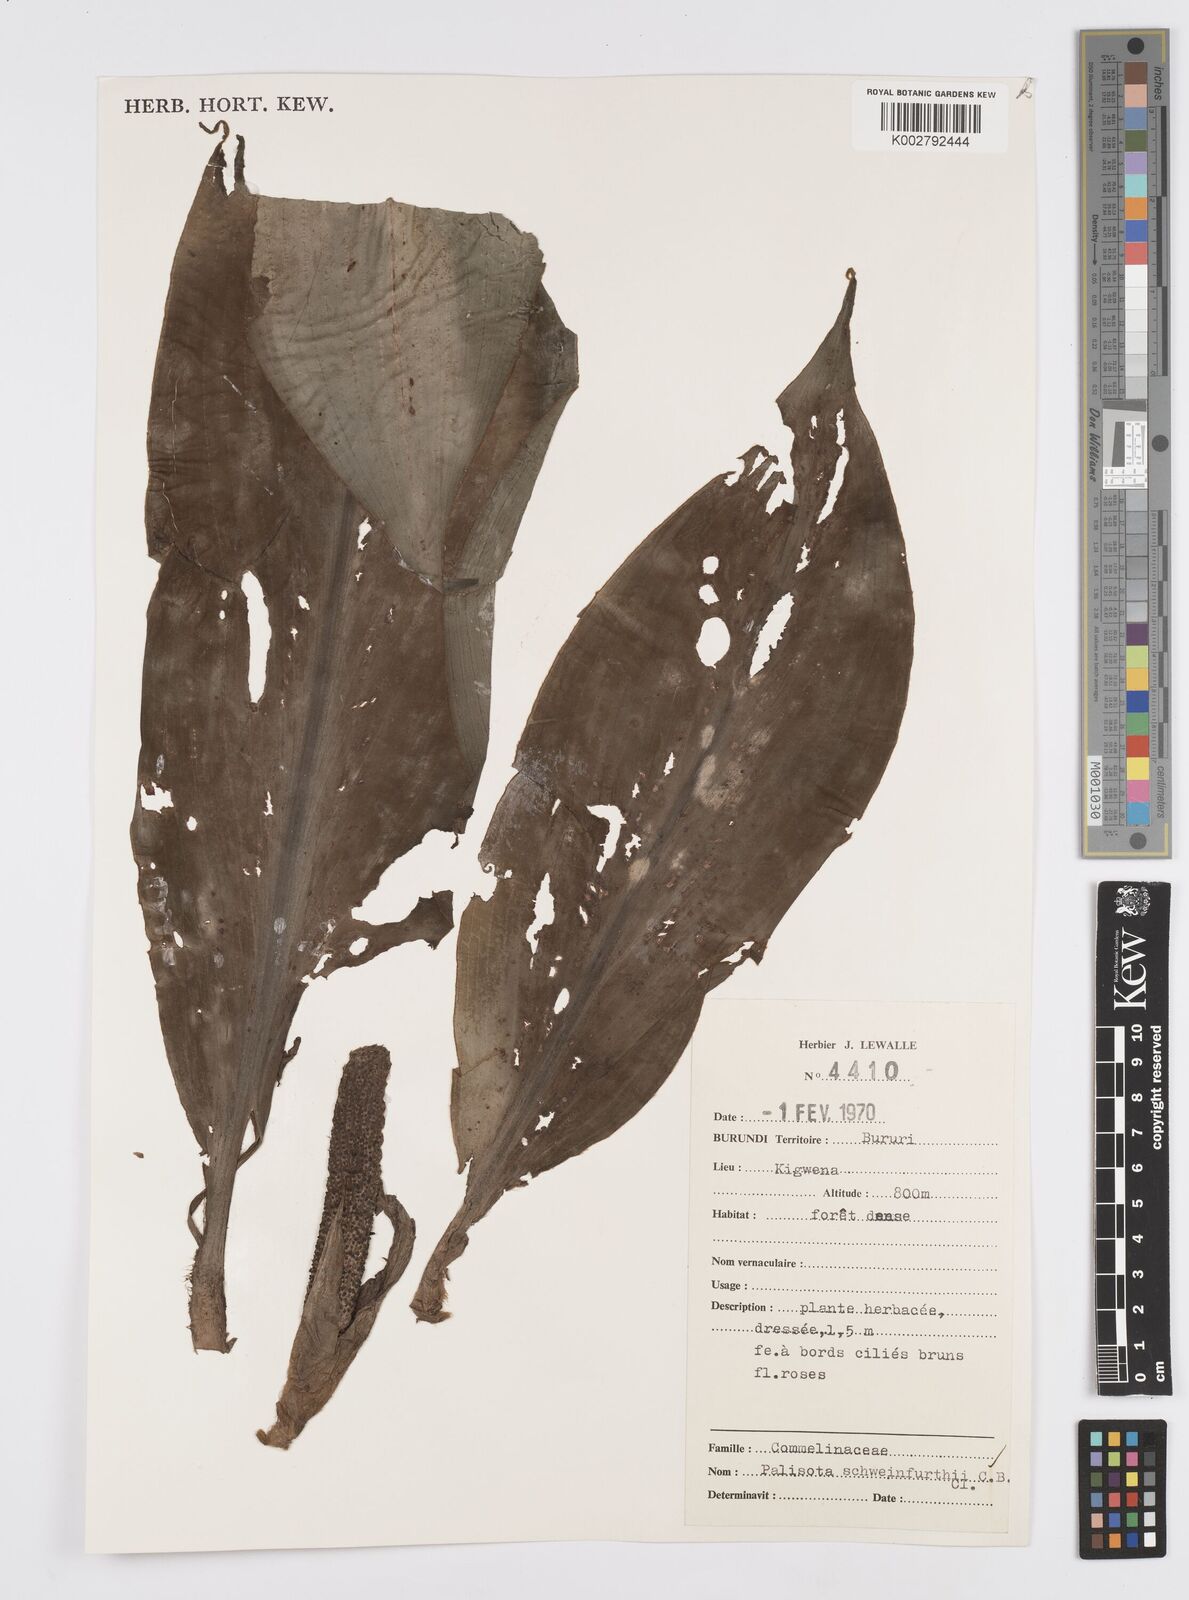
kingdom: Plantae
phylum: Tracheophyta
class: Liliopsida
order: Commelinales
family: Commelinaceae
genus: Palisota
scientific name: Palisota schweinfurthii
